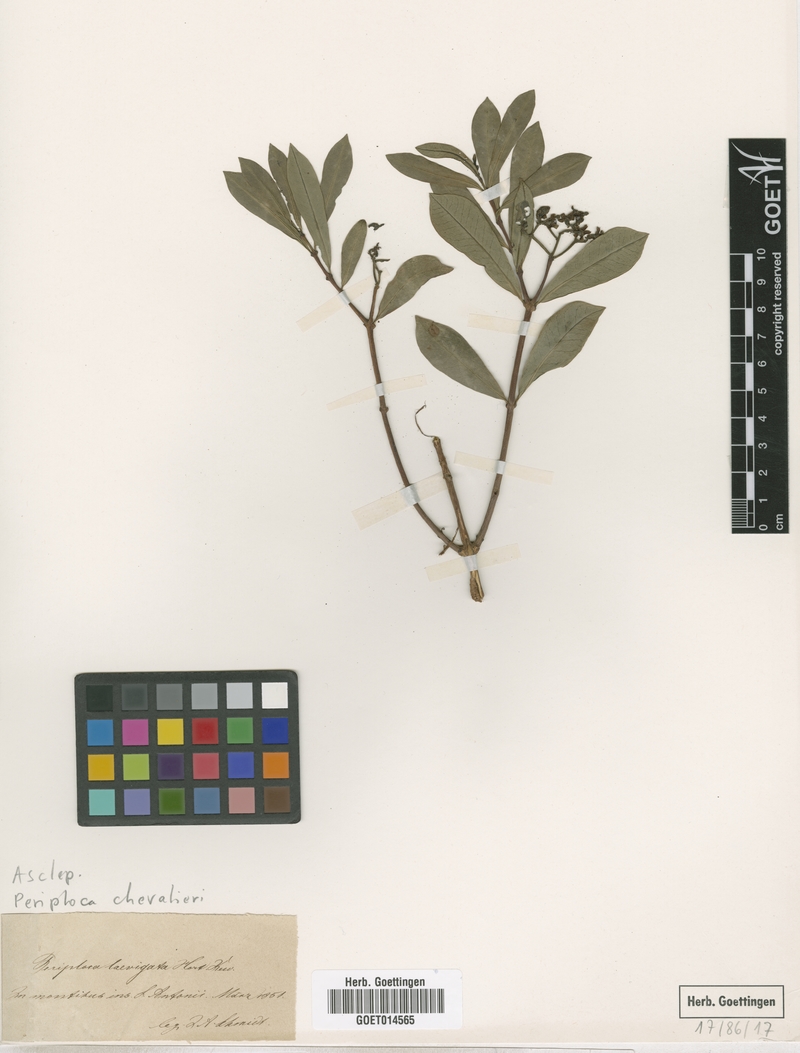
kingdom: Plantae
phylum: Tracheophyta
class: Magnoliopsida
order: Gentianales
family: Apocynaceae
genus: Periploca
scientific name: Periploca chevalieri
